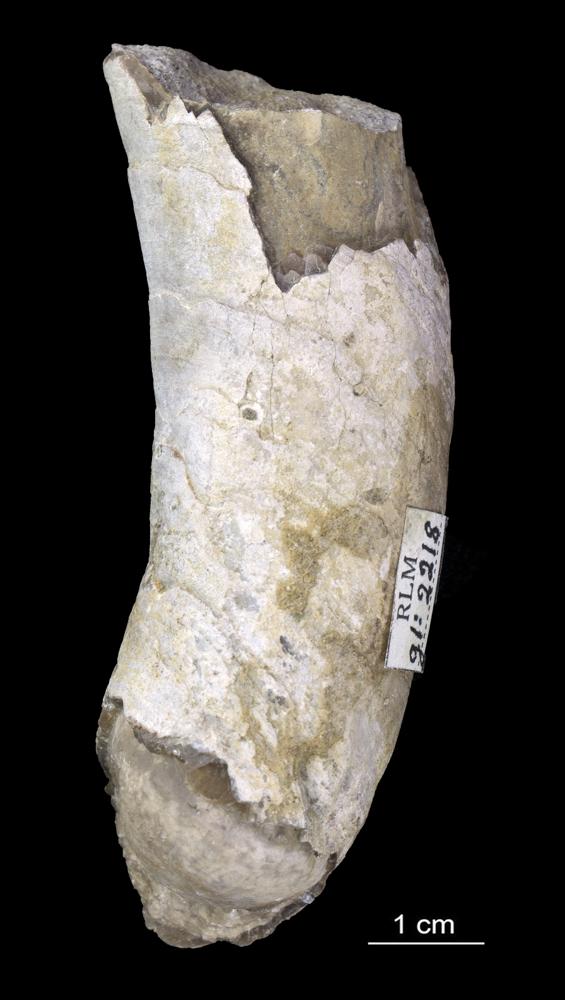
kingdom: Animalia
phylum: Mollusca
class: Cephalopoda
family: Endoceratidae
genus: Proterovaginoceras
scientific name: Proterovaginoceras Endoceras incognitum
